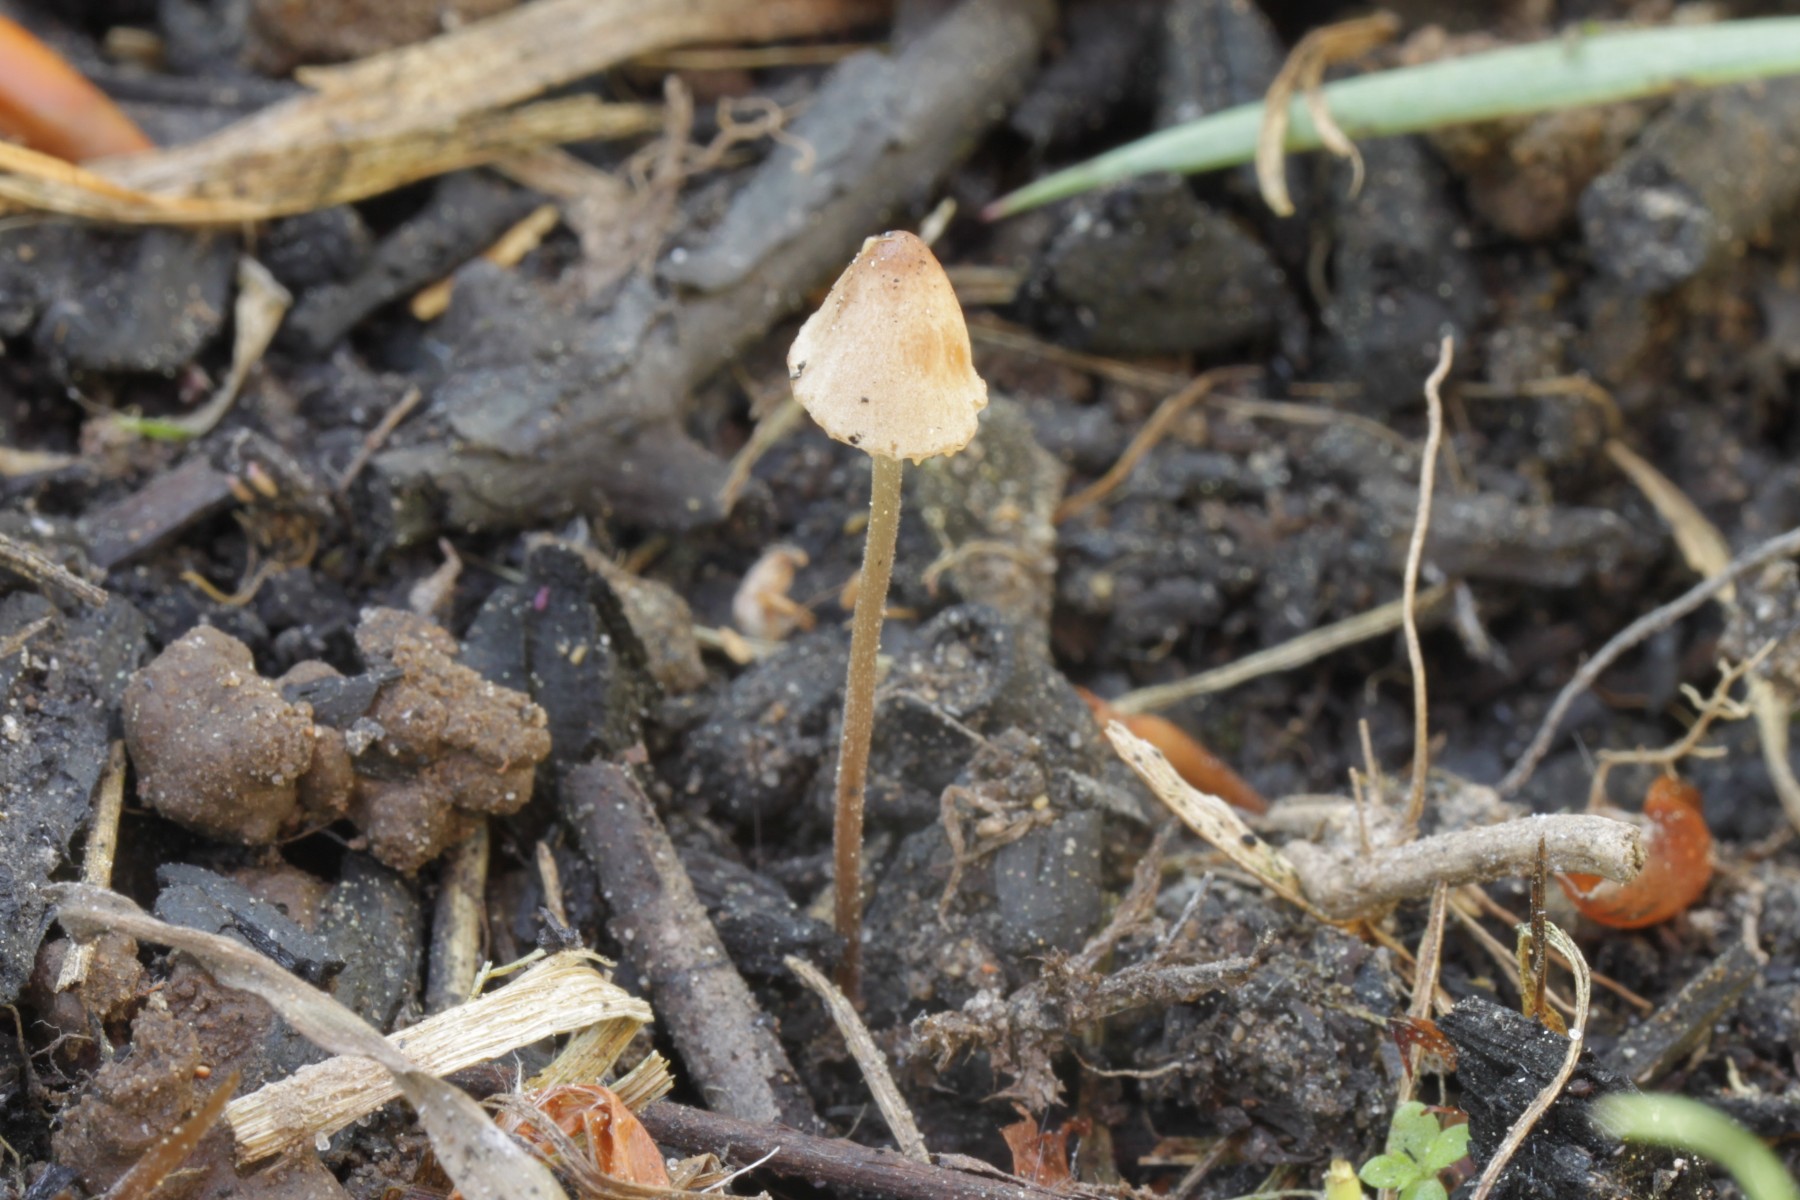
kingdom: Fungi
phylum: Basidiomycota
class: Agaricomycetes
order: Agaricales
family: Bolbitiaceae
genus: Conocybe
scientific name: Conocybe
